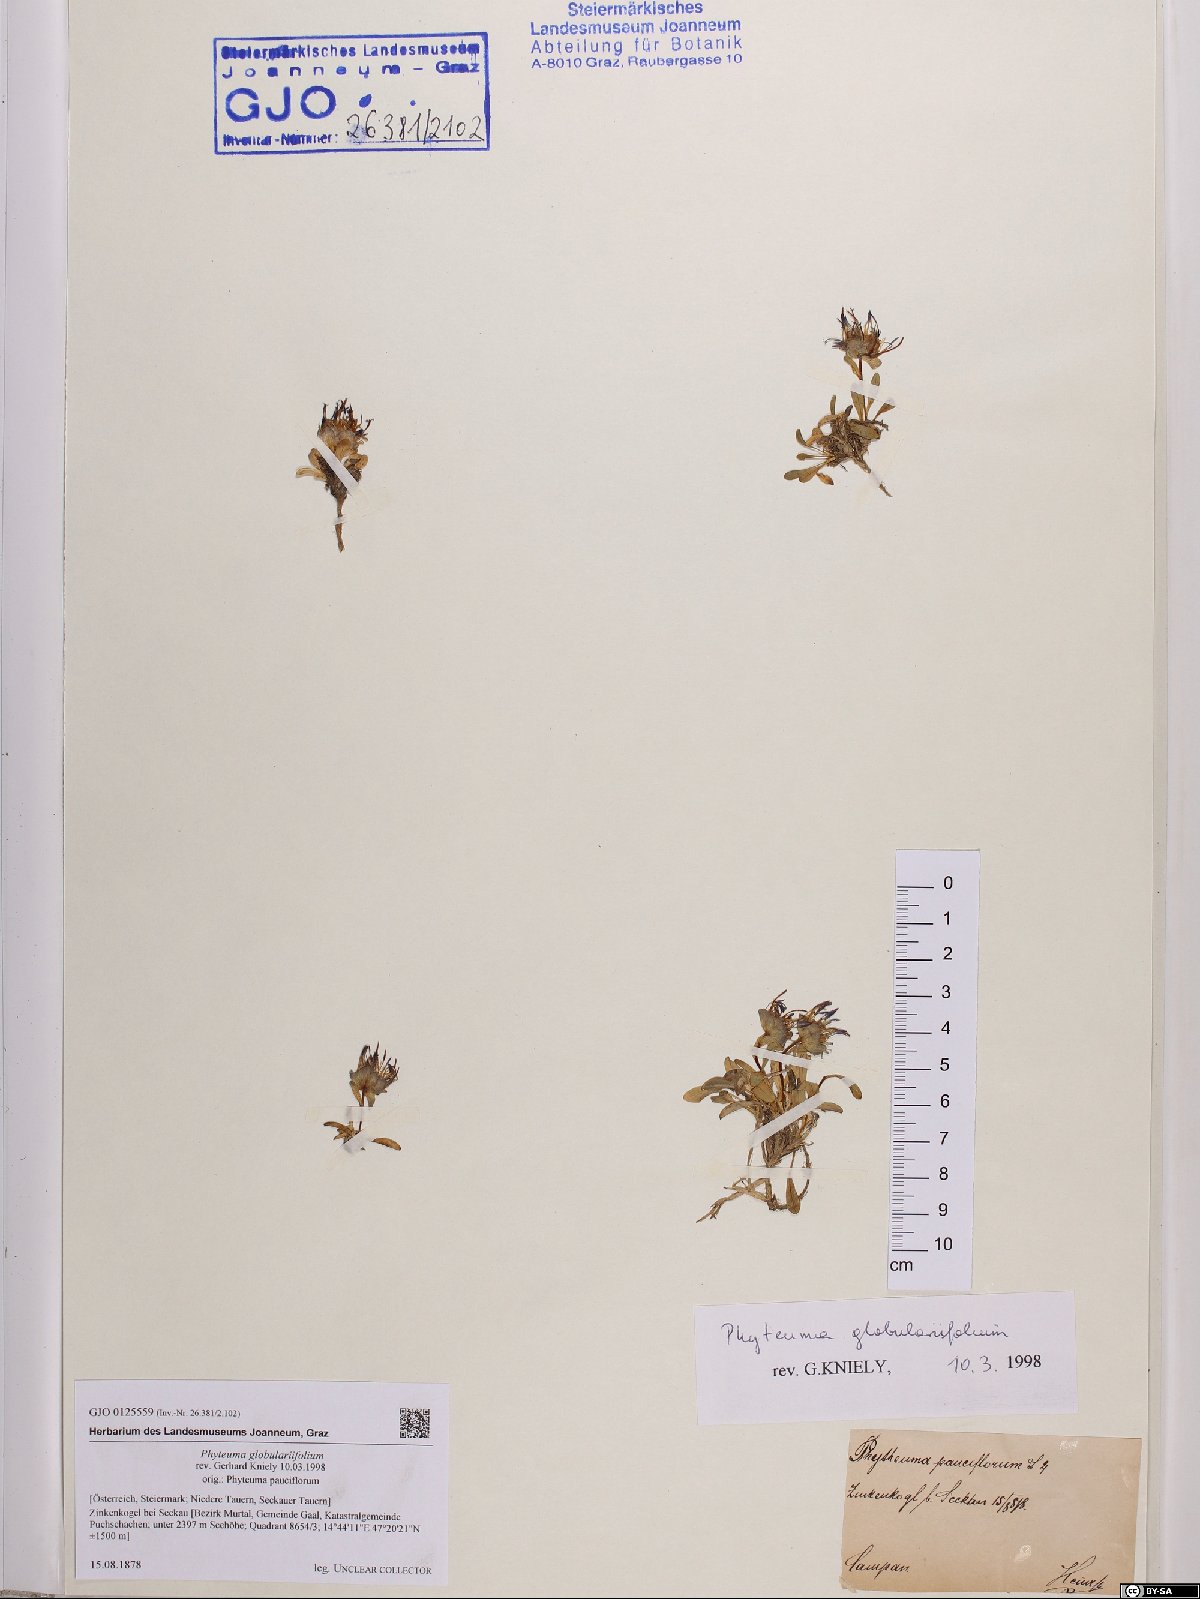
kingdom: Plantae
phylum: Tracheophyta
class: Magnoliopsida
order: Asterales
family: Campanulaceae
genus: Phyteuma
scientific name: Phyteuma globulariifolium
